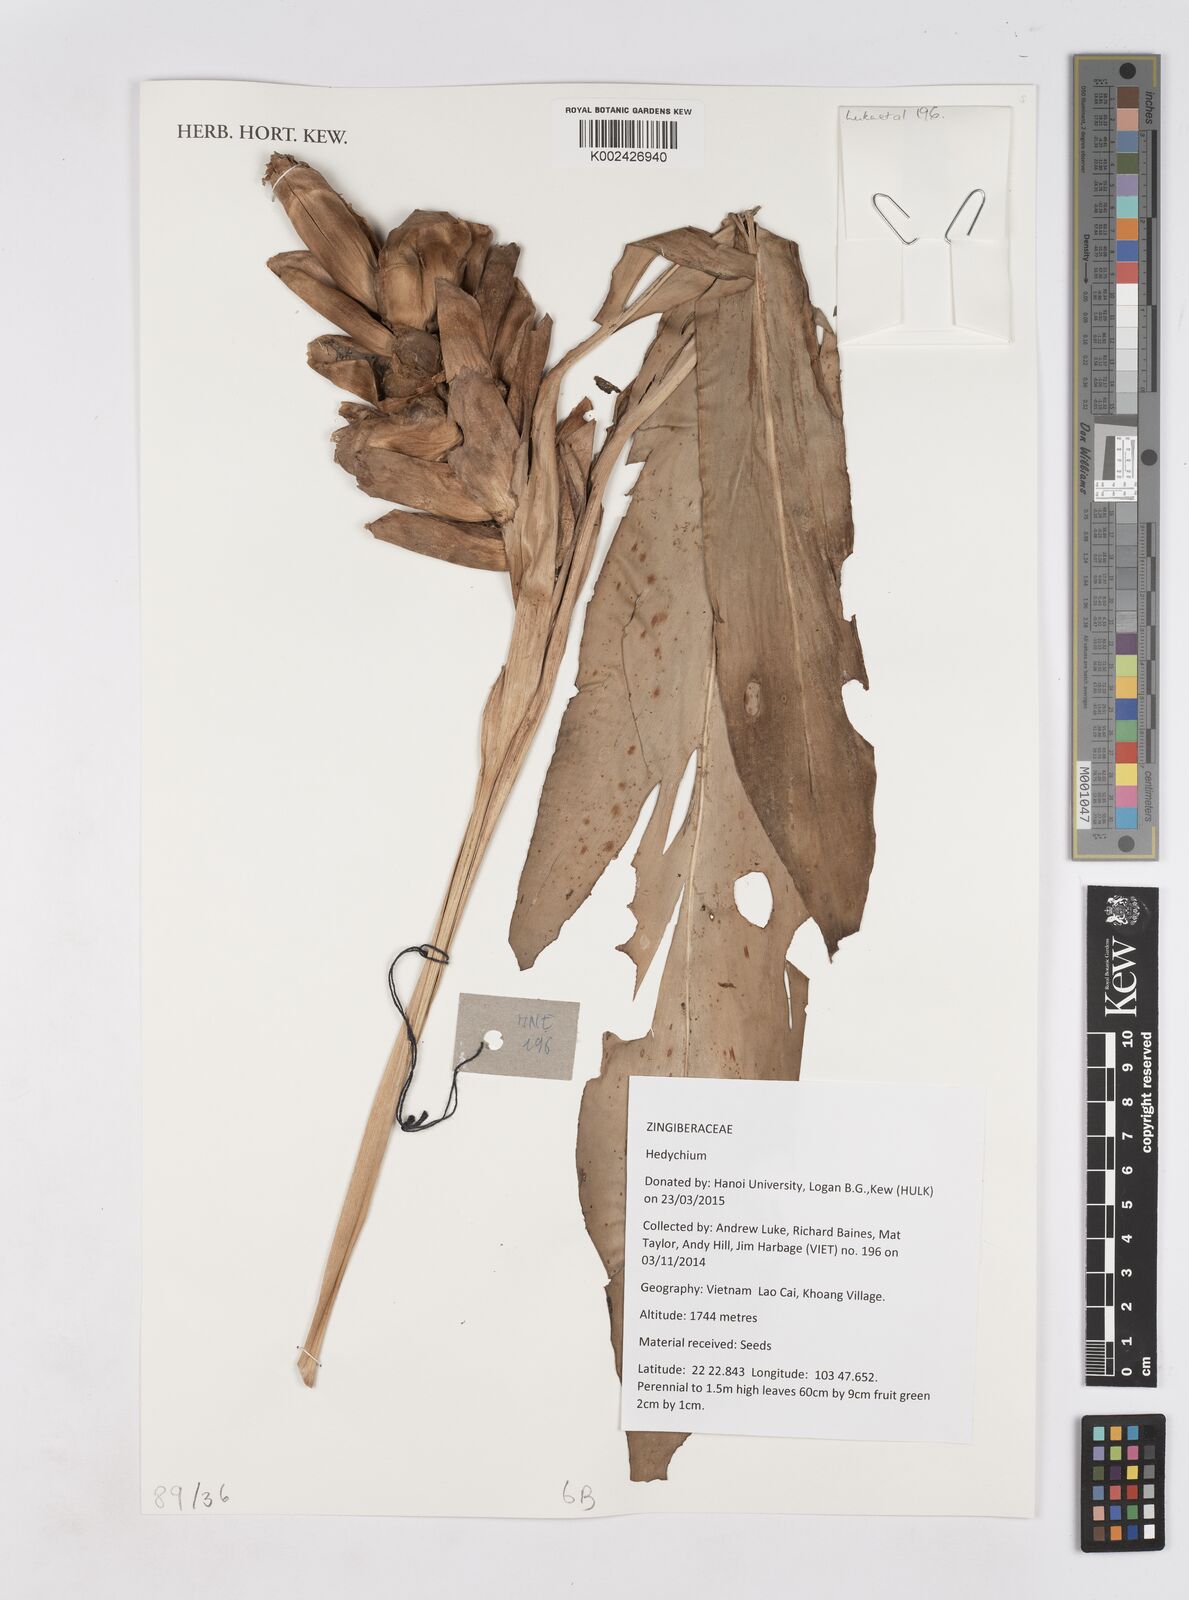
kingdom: Plantae
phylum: Tracheophyta
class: Liliopsida
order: Zingiberales
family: Zingiberaceae
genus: Hedychium
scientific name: Hedychium
